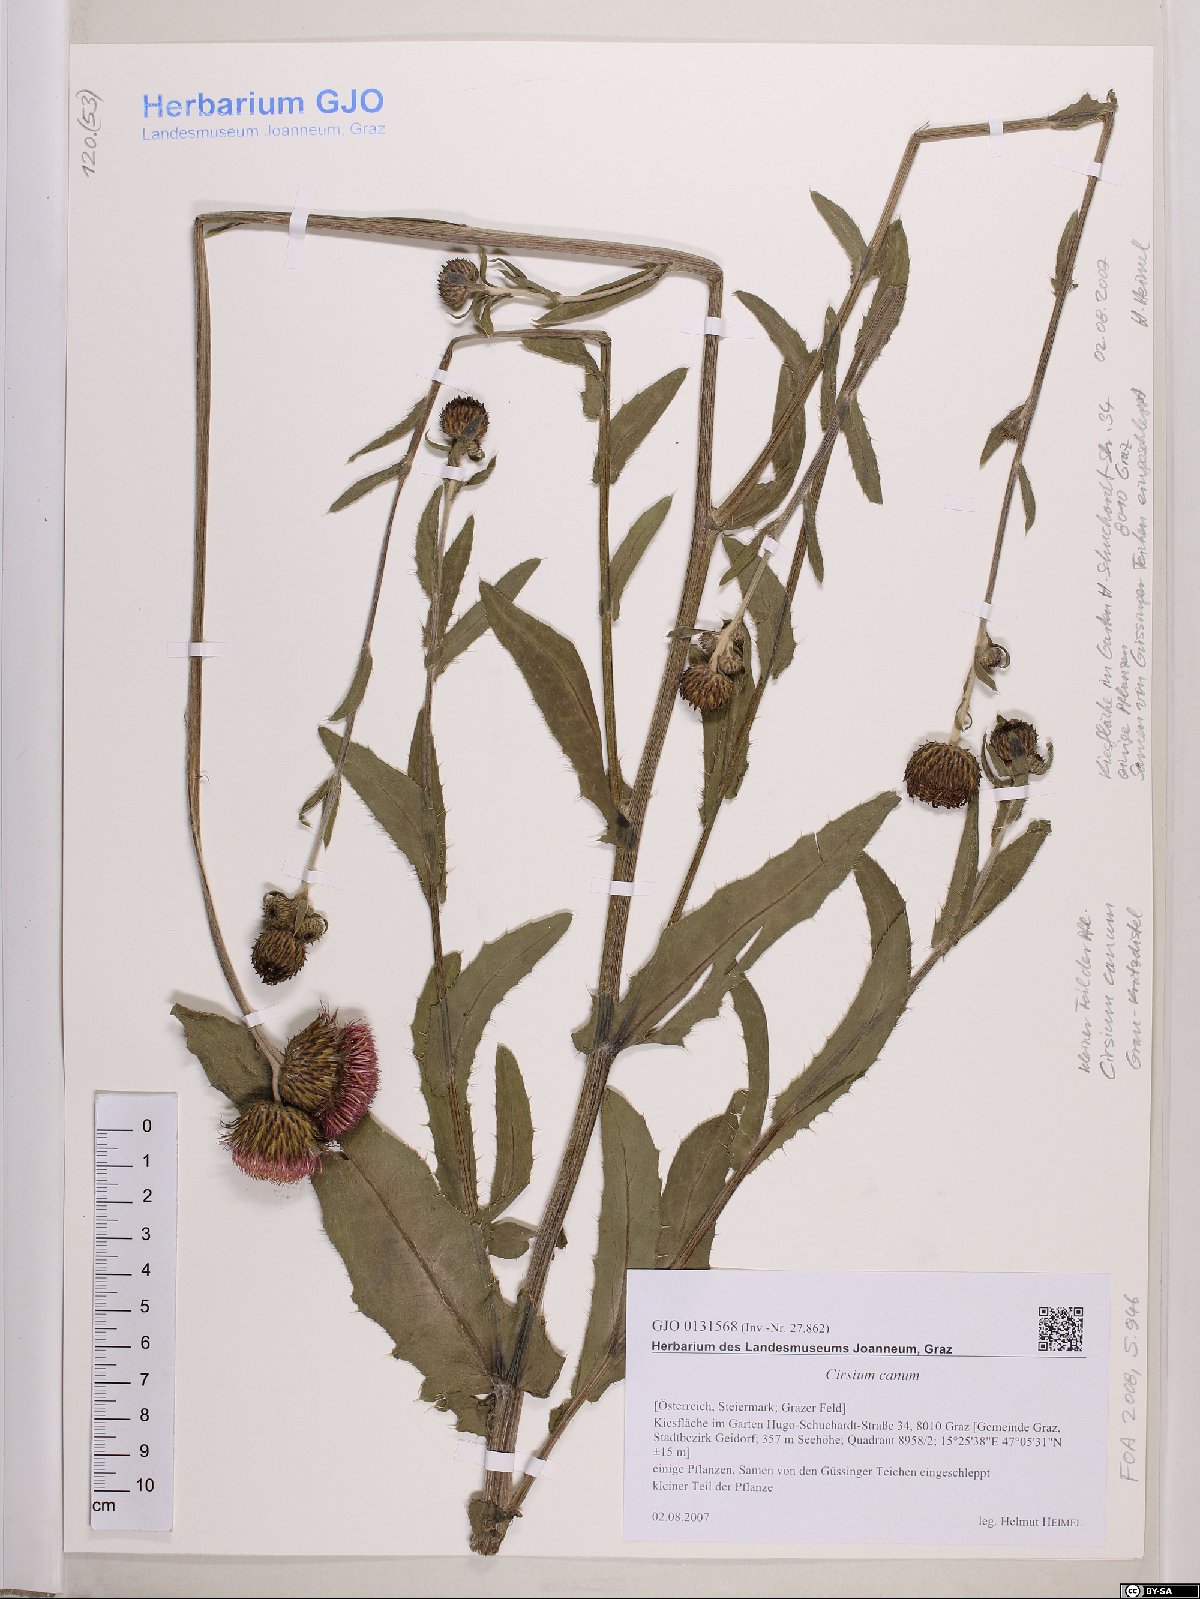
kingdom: Plantae
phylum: Tracheophyta
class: Magnoliopsida
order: Asterales
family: Asteraceae
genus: Cirsium
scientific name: Cirsium canum
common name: Queen anne's thistle
